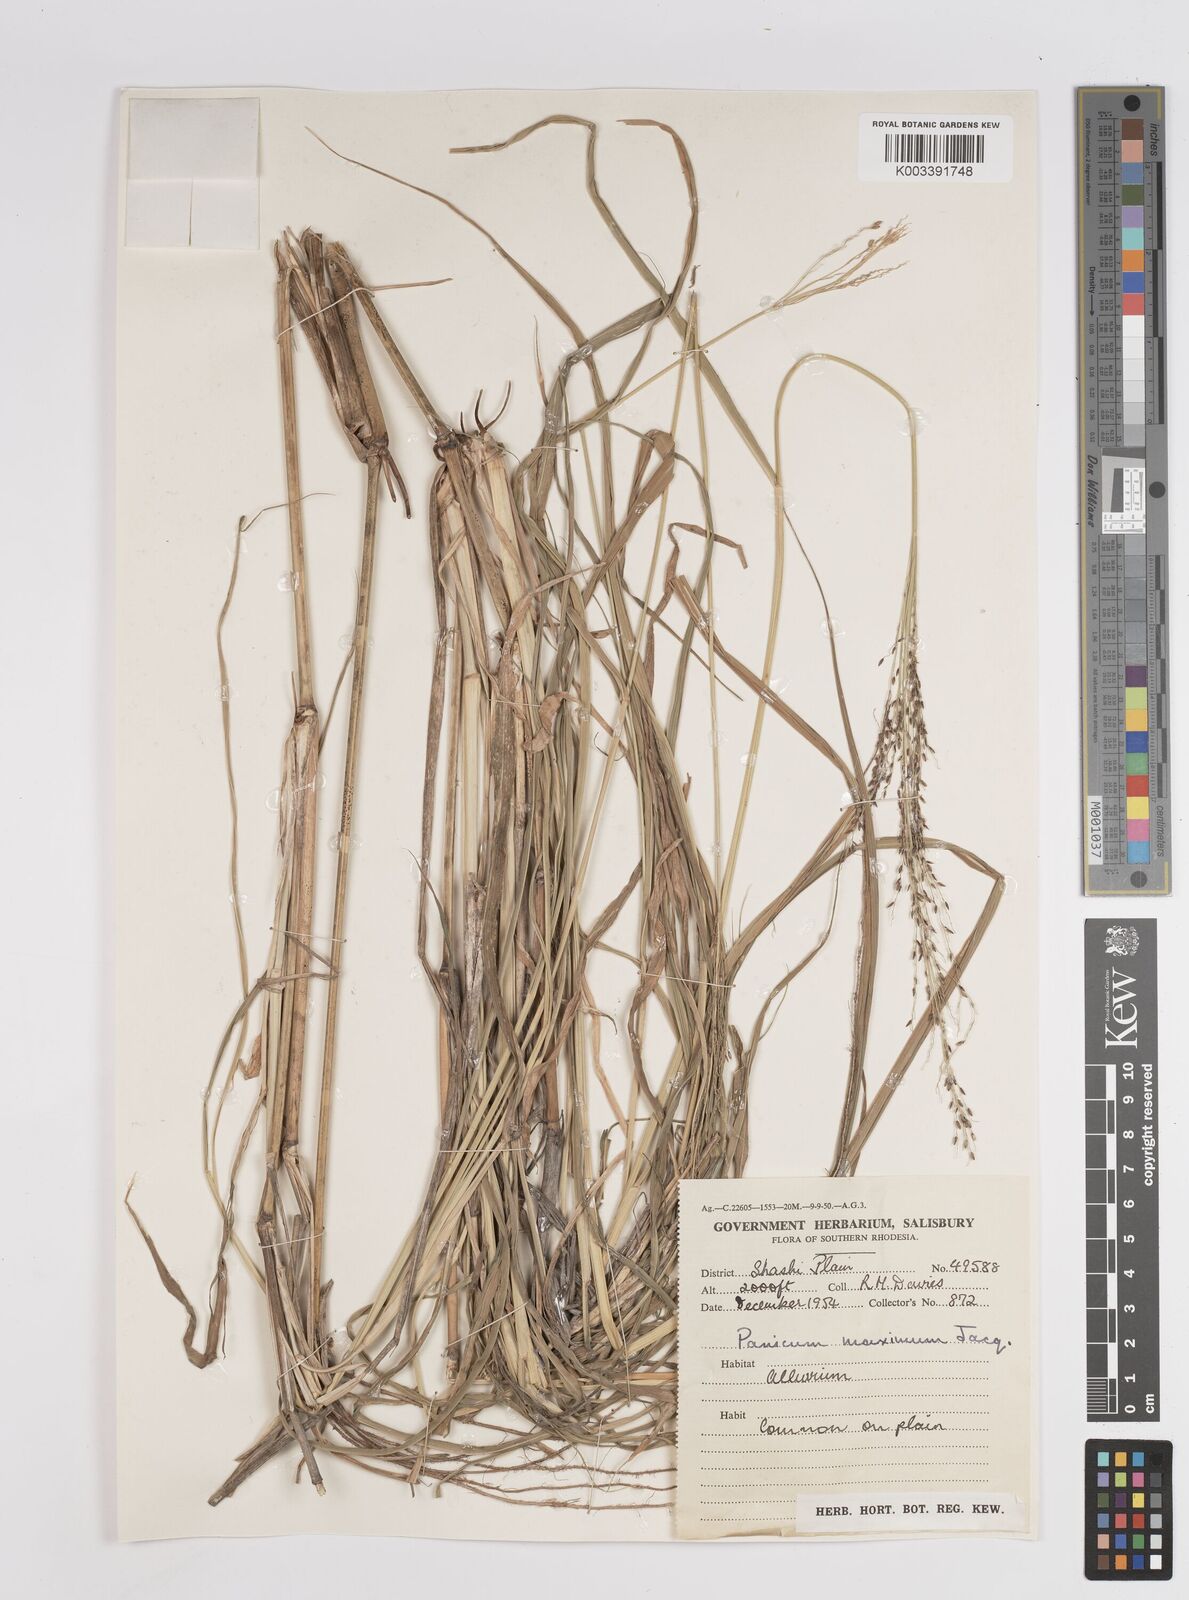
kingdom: Plantae
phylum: Tracheophyta
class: Liliopsida
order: Poales
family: Poaceae
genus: Megathyrsus
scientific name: Megathyrsus maximus
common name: Guineagrass
